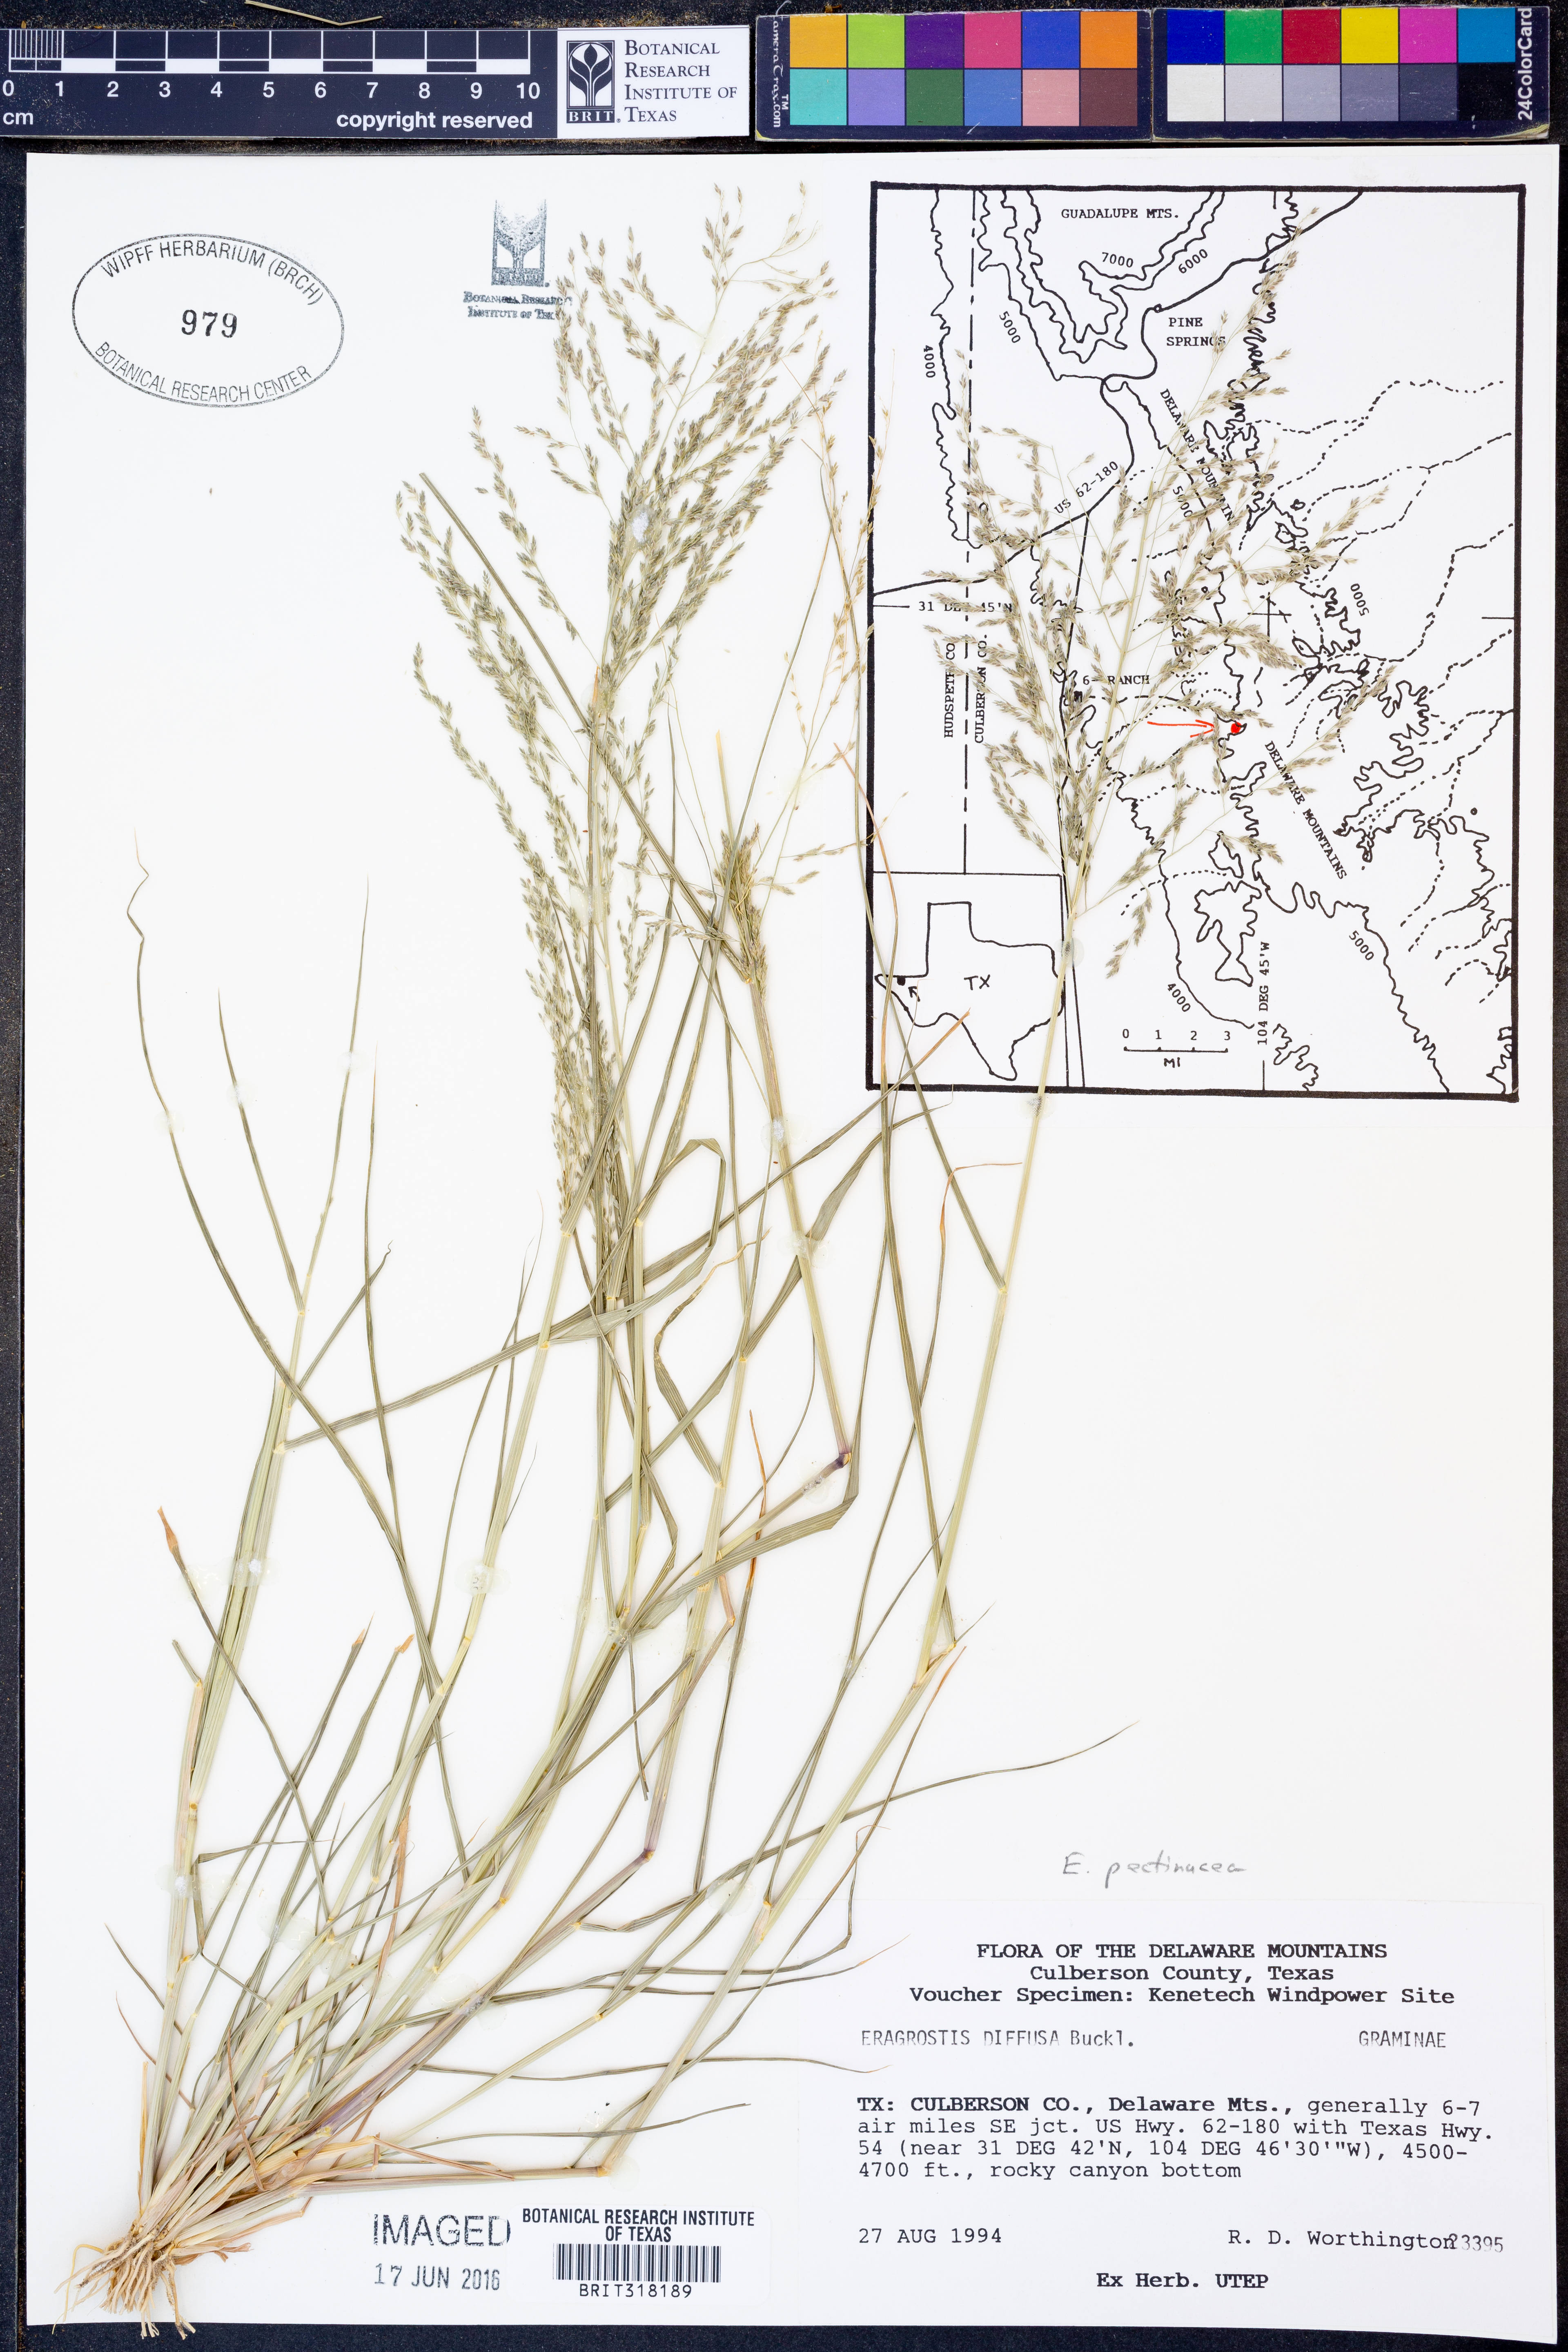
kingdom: Plantae
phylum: Tracheophyta
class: Liliopsida
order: Poales
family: Poaceae
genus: Eragrostis
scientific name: Eragrostis pectinacea
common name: Tufted lovegrass
